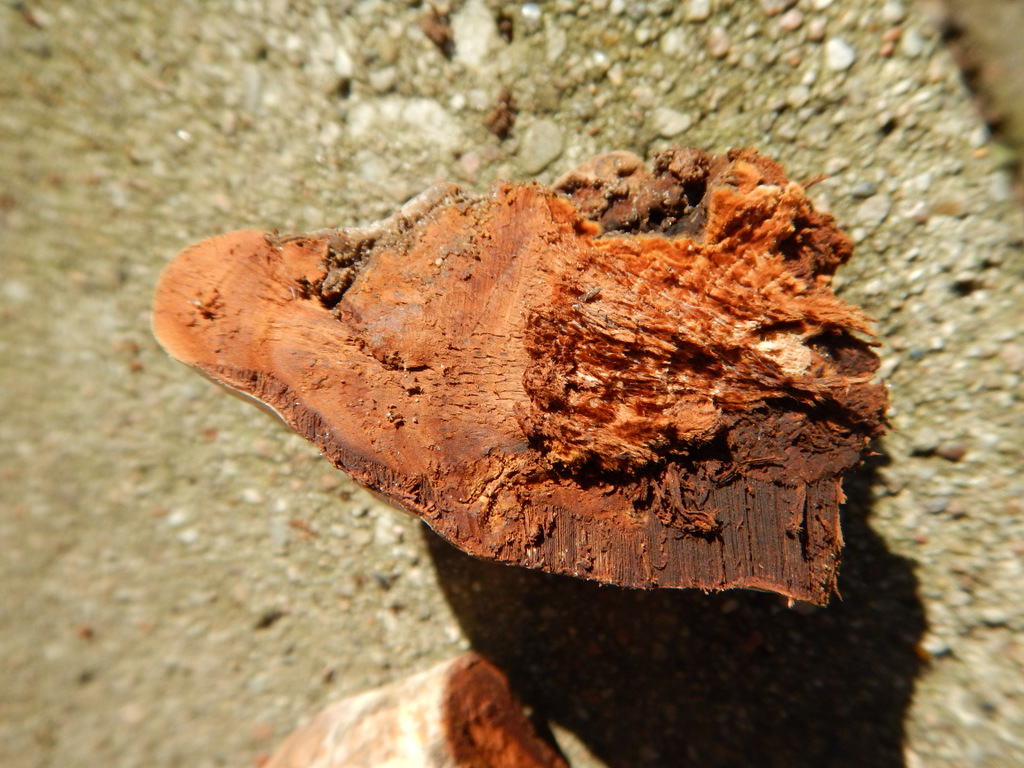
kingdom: Fungi
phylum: Basidiomycota
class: Agaricomycetes
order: Polyporales
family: Polyporaceae
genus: Ganoderma
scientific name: Ganoderma adspersum
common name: grov lakporesvamp
